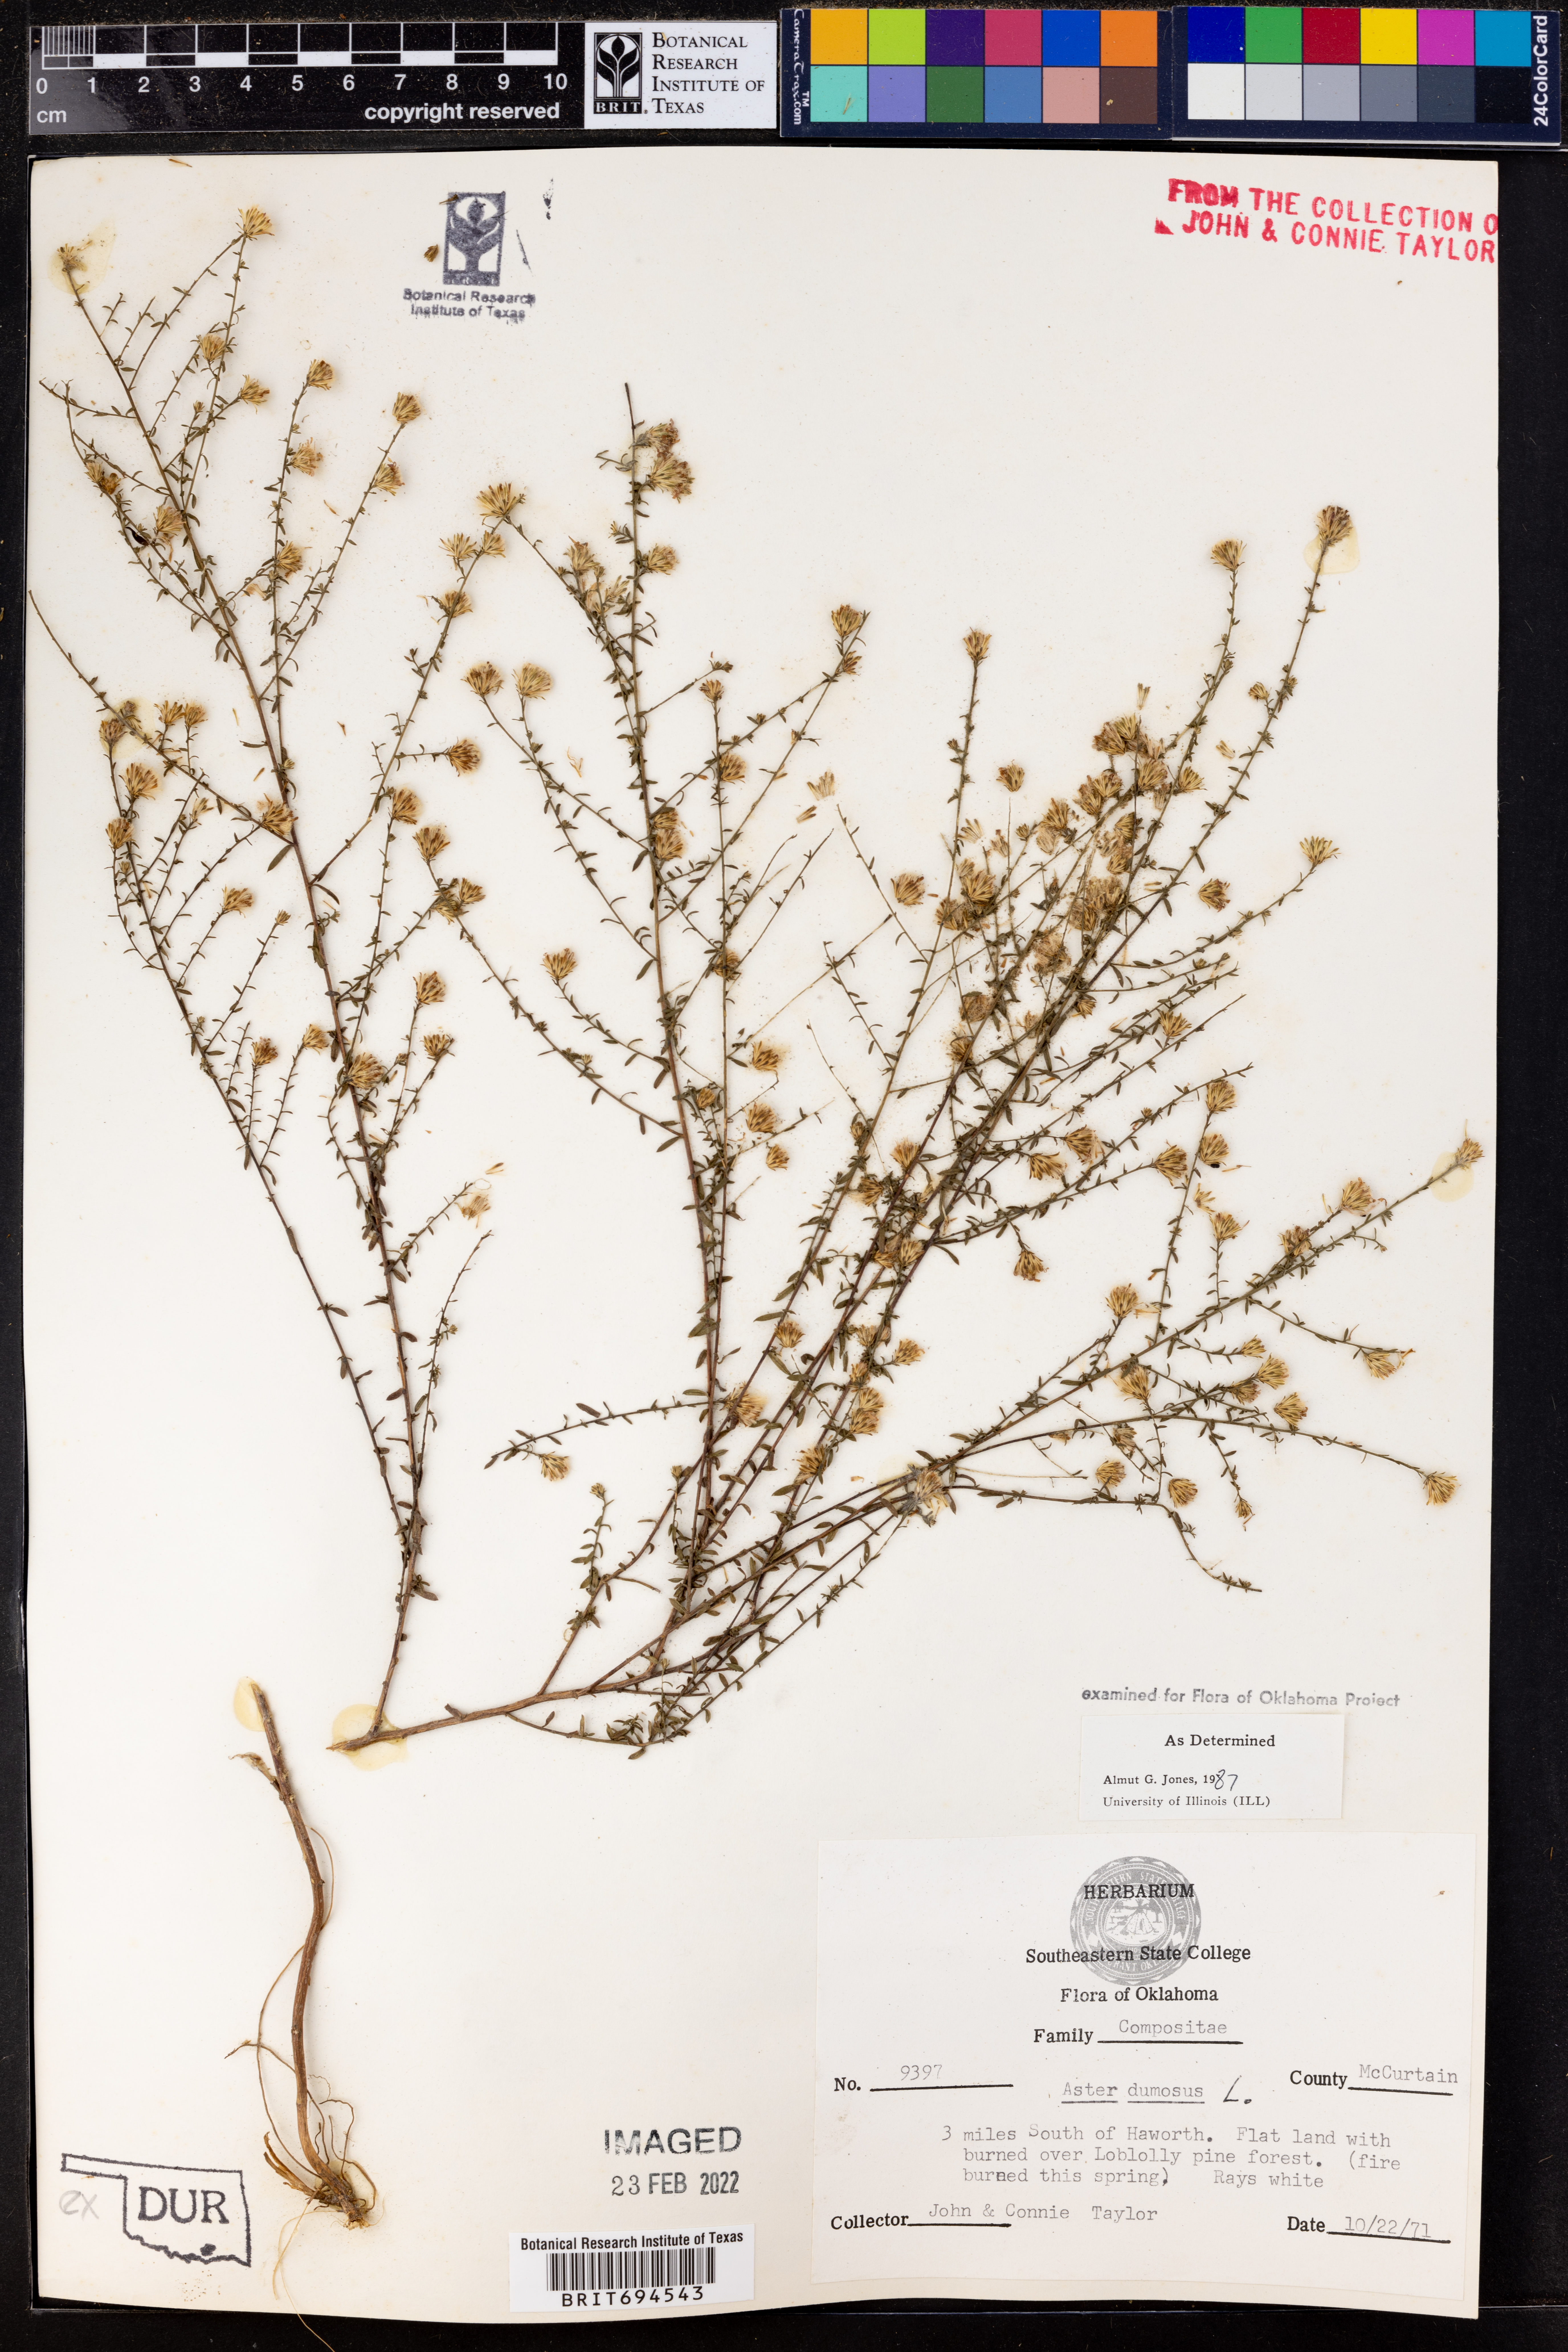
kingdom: Plantae
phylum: Tracheophyta
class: Magnoliopsida
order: Asterales
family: Asteraceae
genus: Symphyotrichum
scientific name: Symphyotrichum dumosum
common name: Bushy aster
